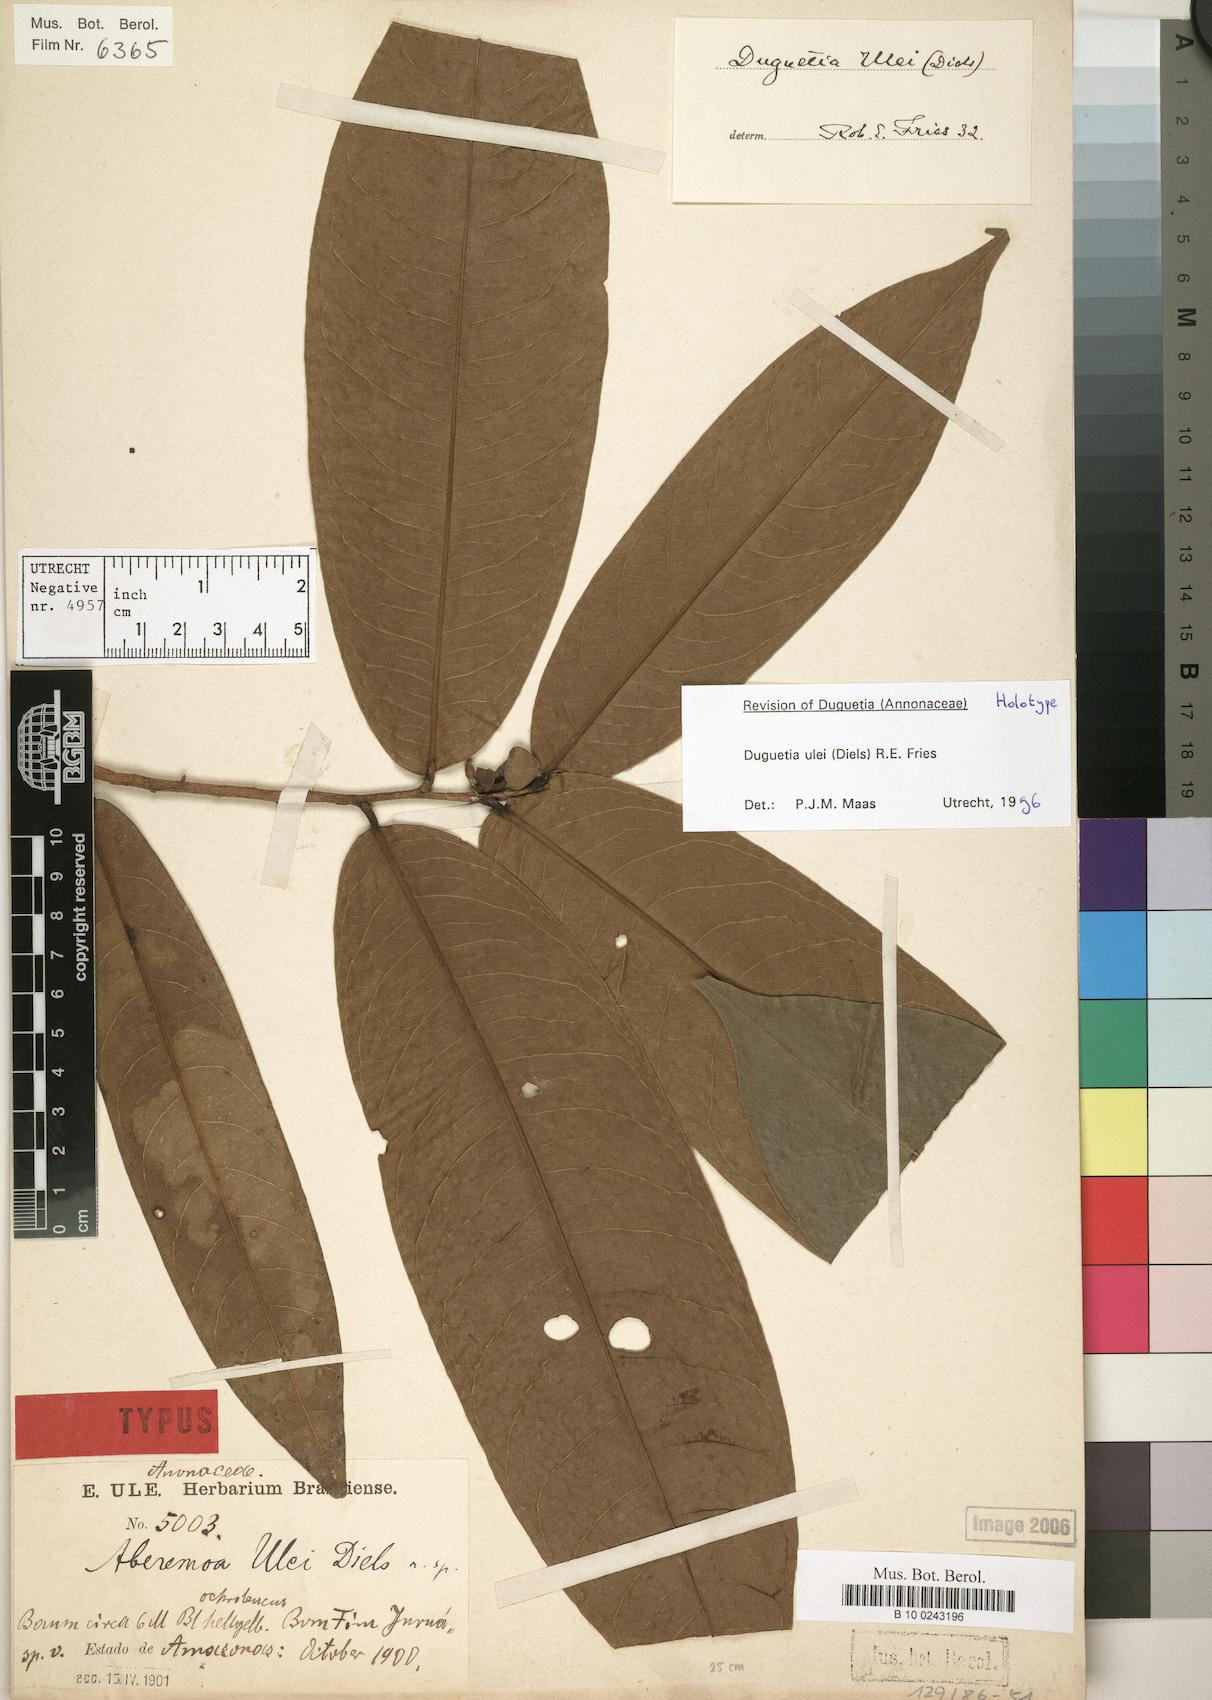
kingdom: Plantae
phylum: Tracheophyta
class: Magnoliopsida
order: Magnoliales
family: Annonaceae
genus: Duguetia
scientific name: Duguetia ulei
